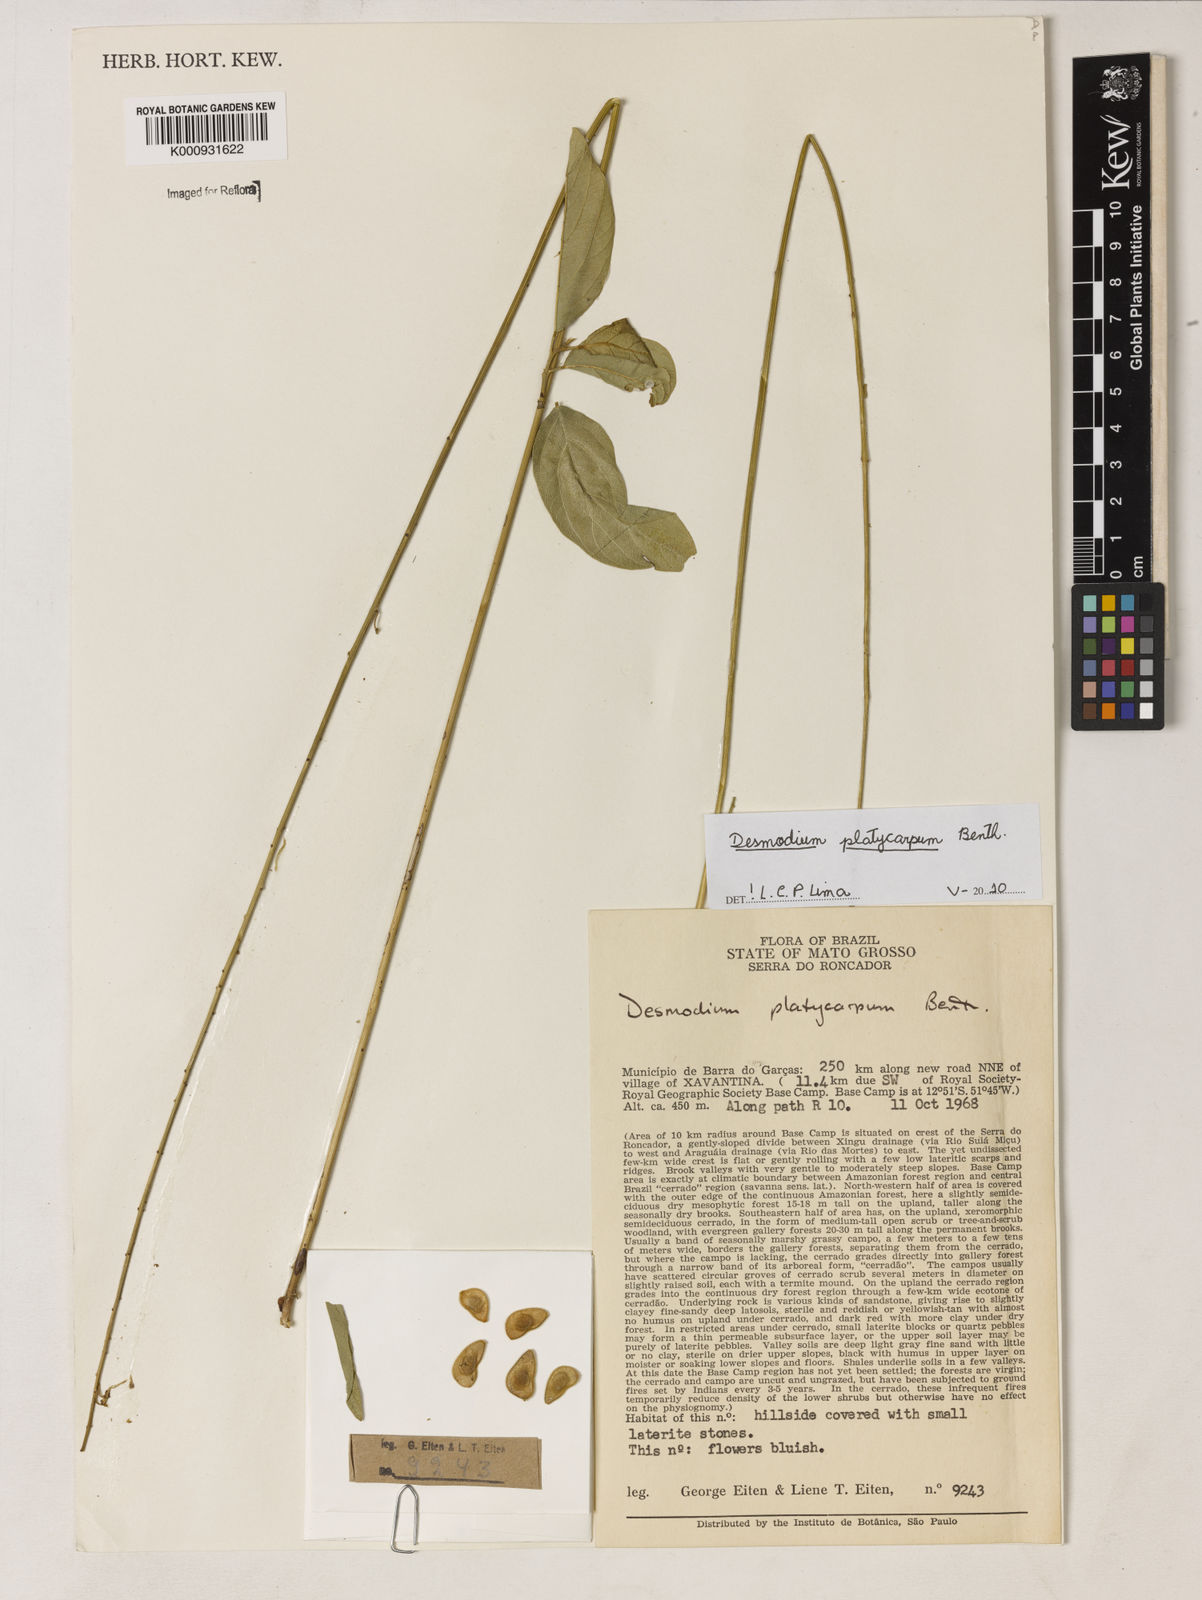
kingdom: Plantae
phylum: Tracheophyta
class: Magnoliopsida
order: Fabales
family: Fabaceae
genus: Desmodium
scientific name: Desmodium platycarpum
